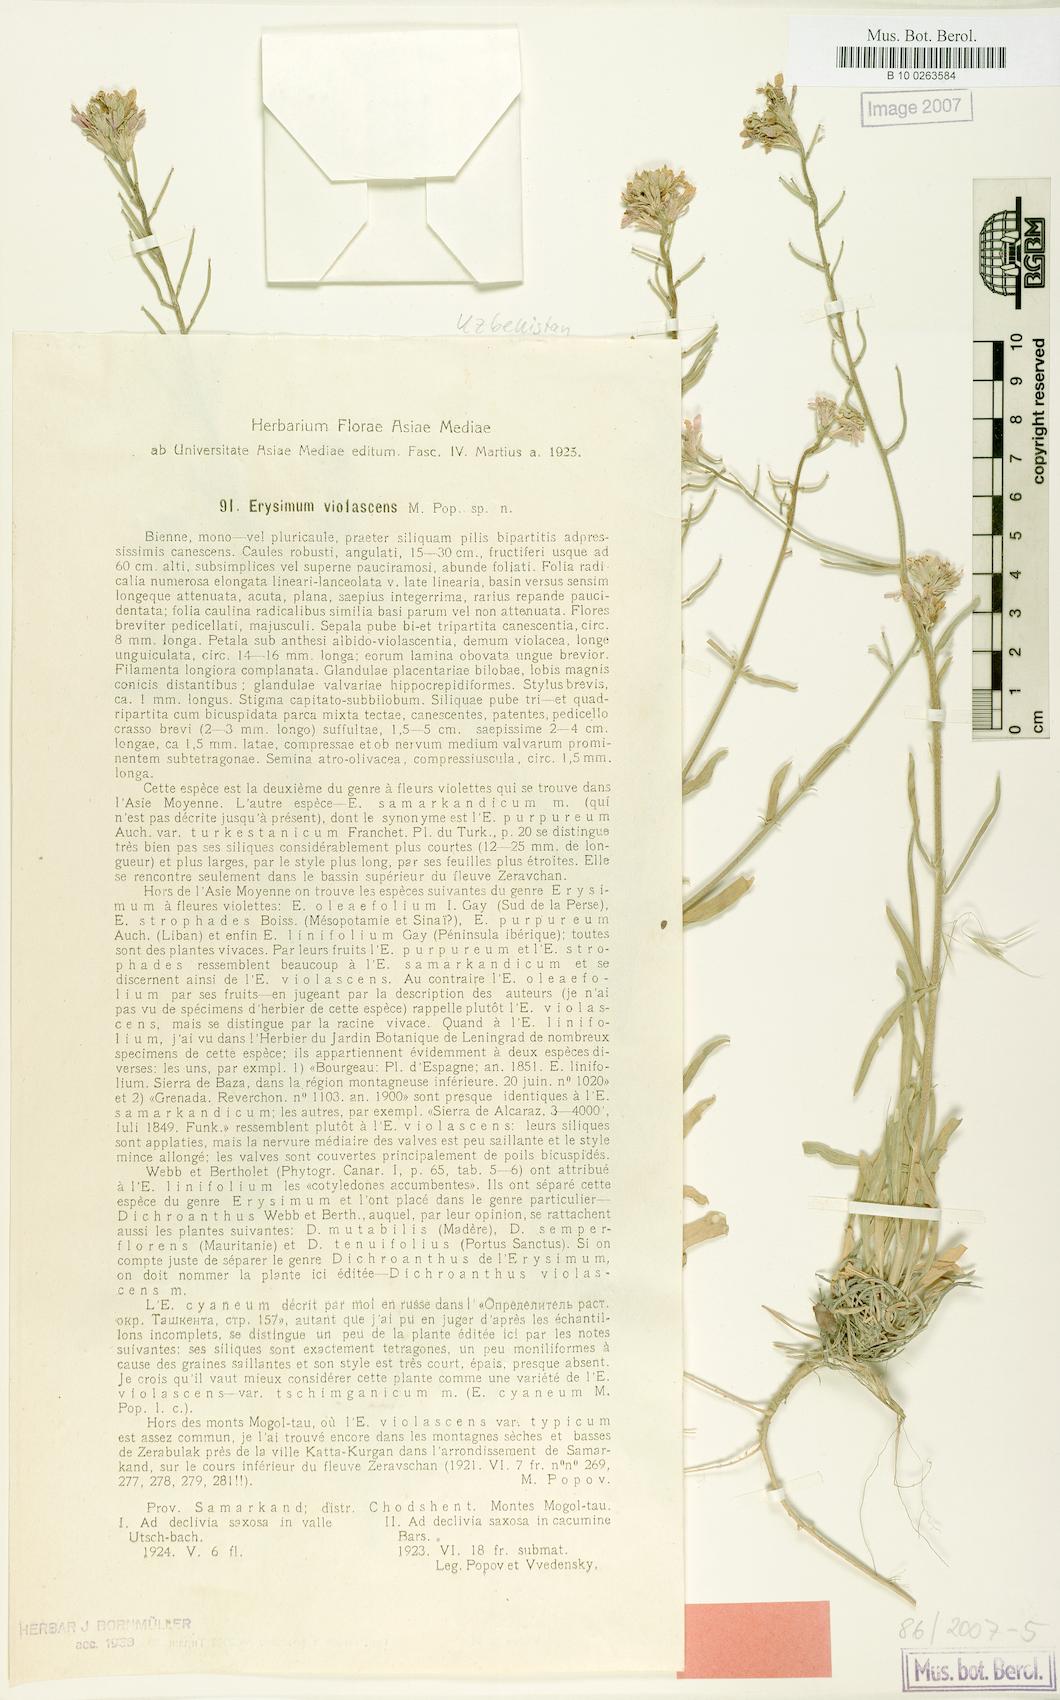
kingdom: Plantae
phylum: Tracheophyta
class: Magnoliopsida
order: Brassicales
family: Brassicaceae
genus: Erysimum
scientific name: Erysimum violascens
